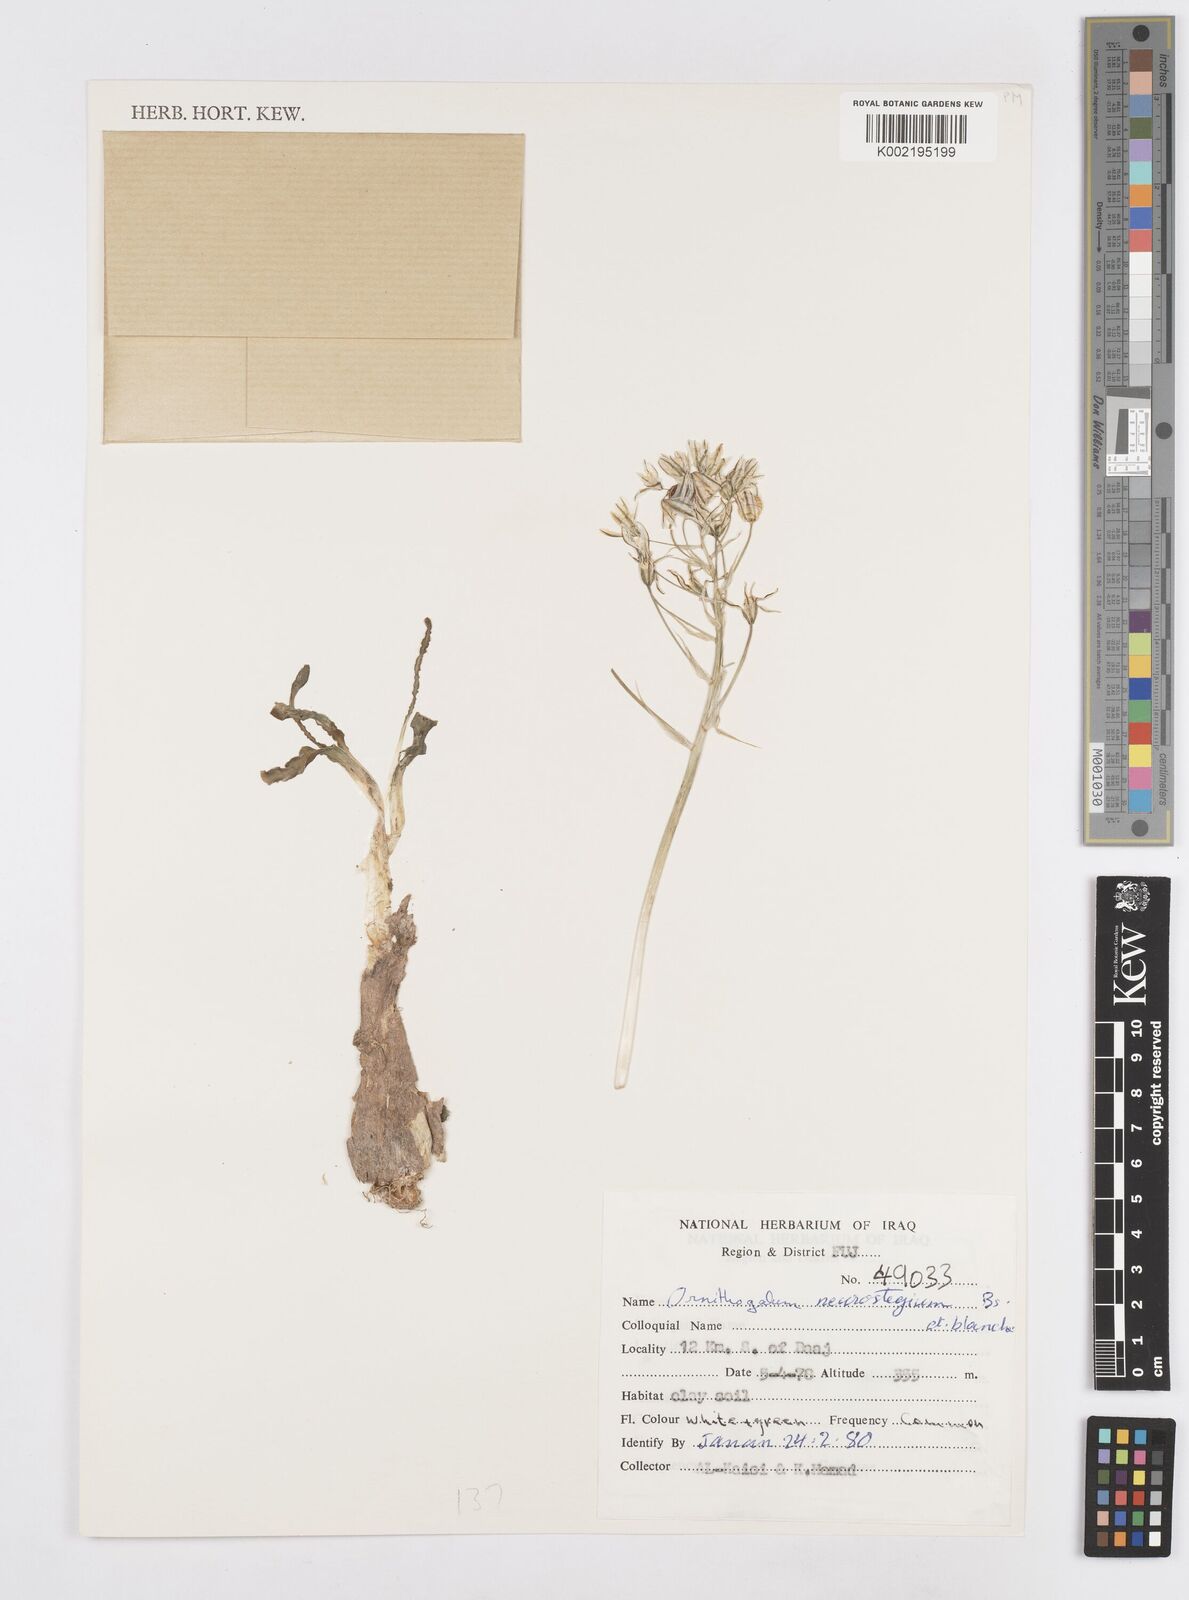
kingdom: Plantae
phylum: Tracheophyta
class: Liliopsida
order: Asparagales
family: Asparagaceae
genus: Ornithogalum
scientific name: Ornithogalum neurostegium
